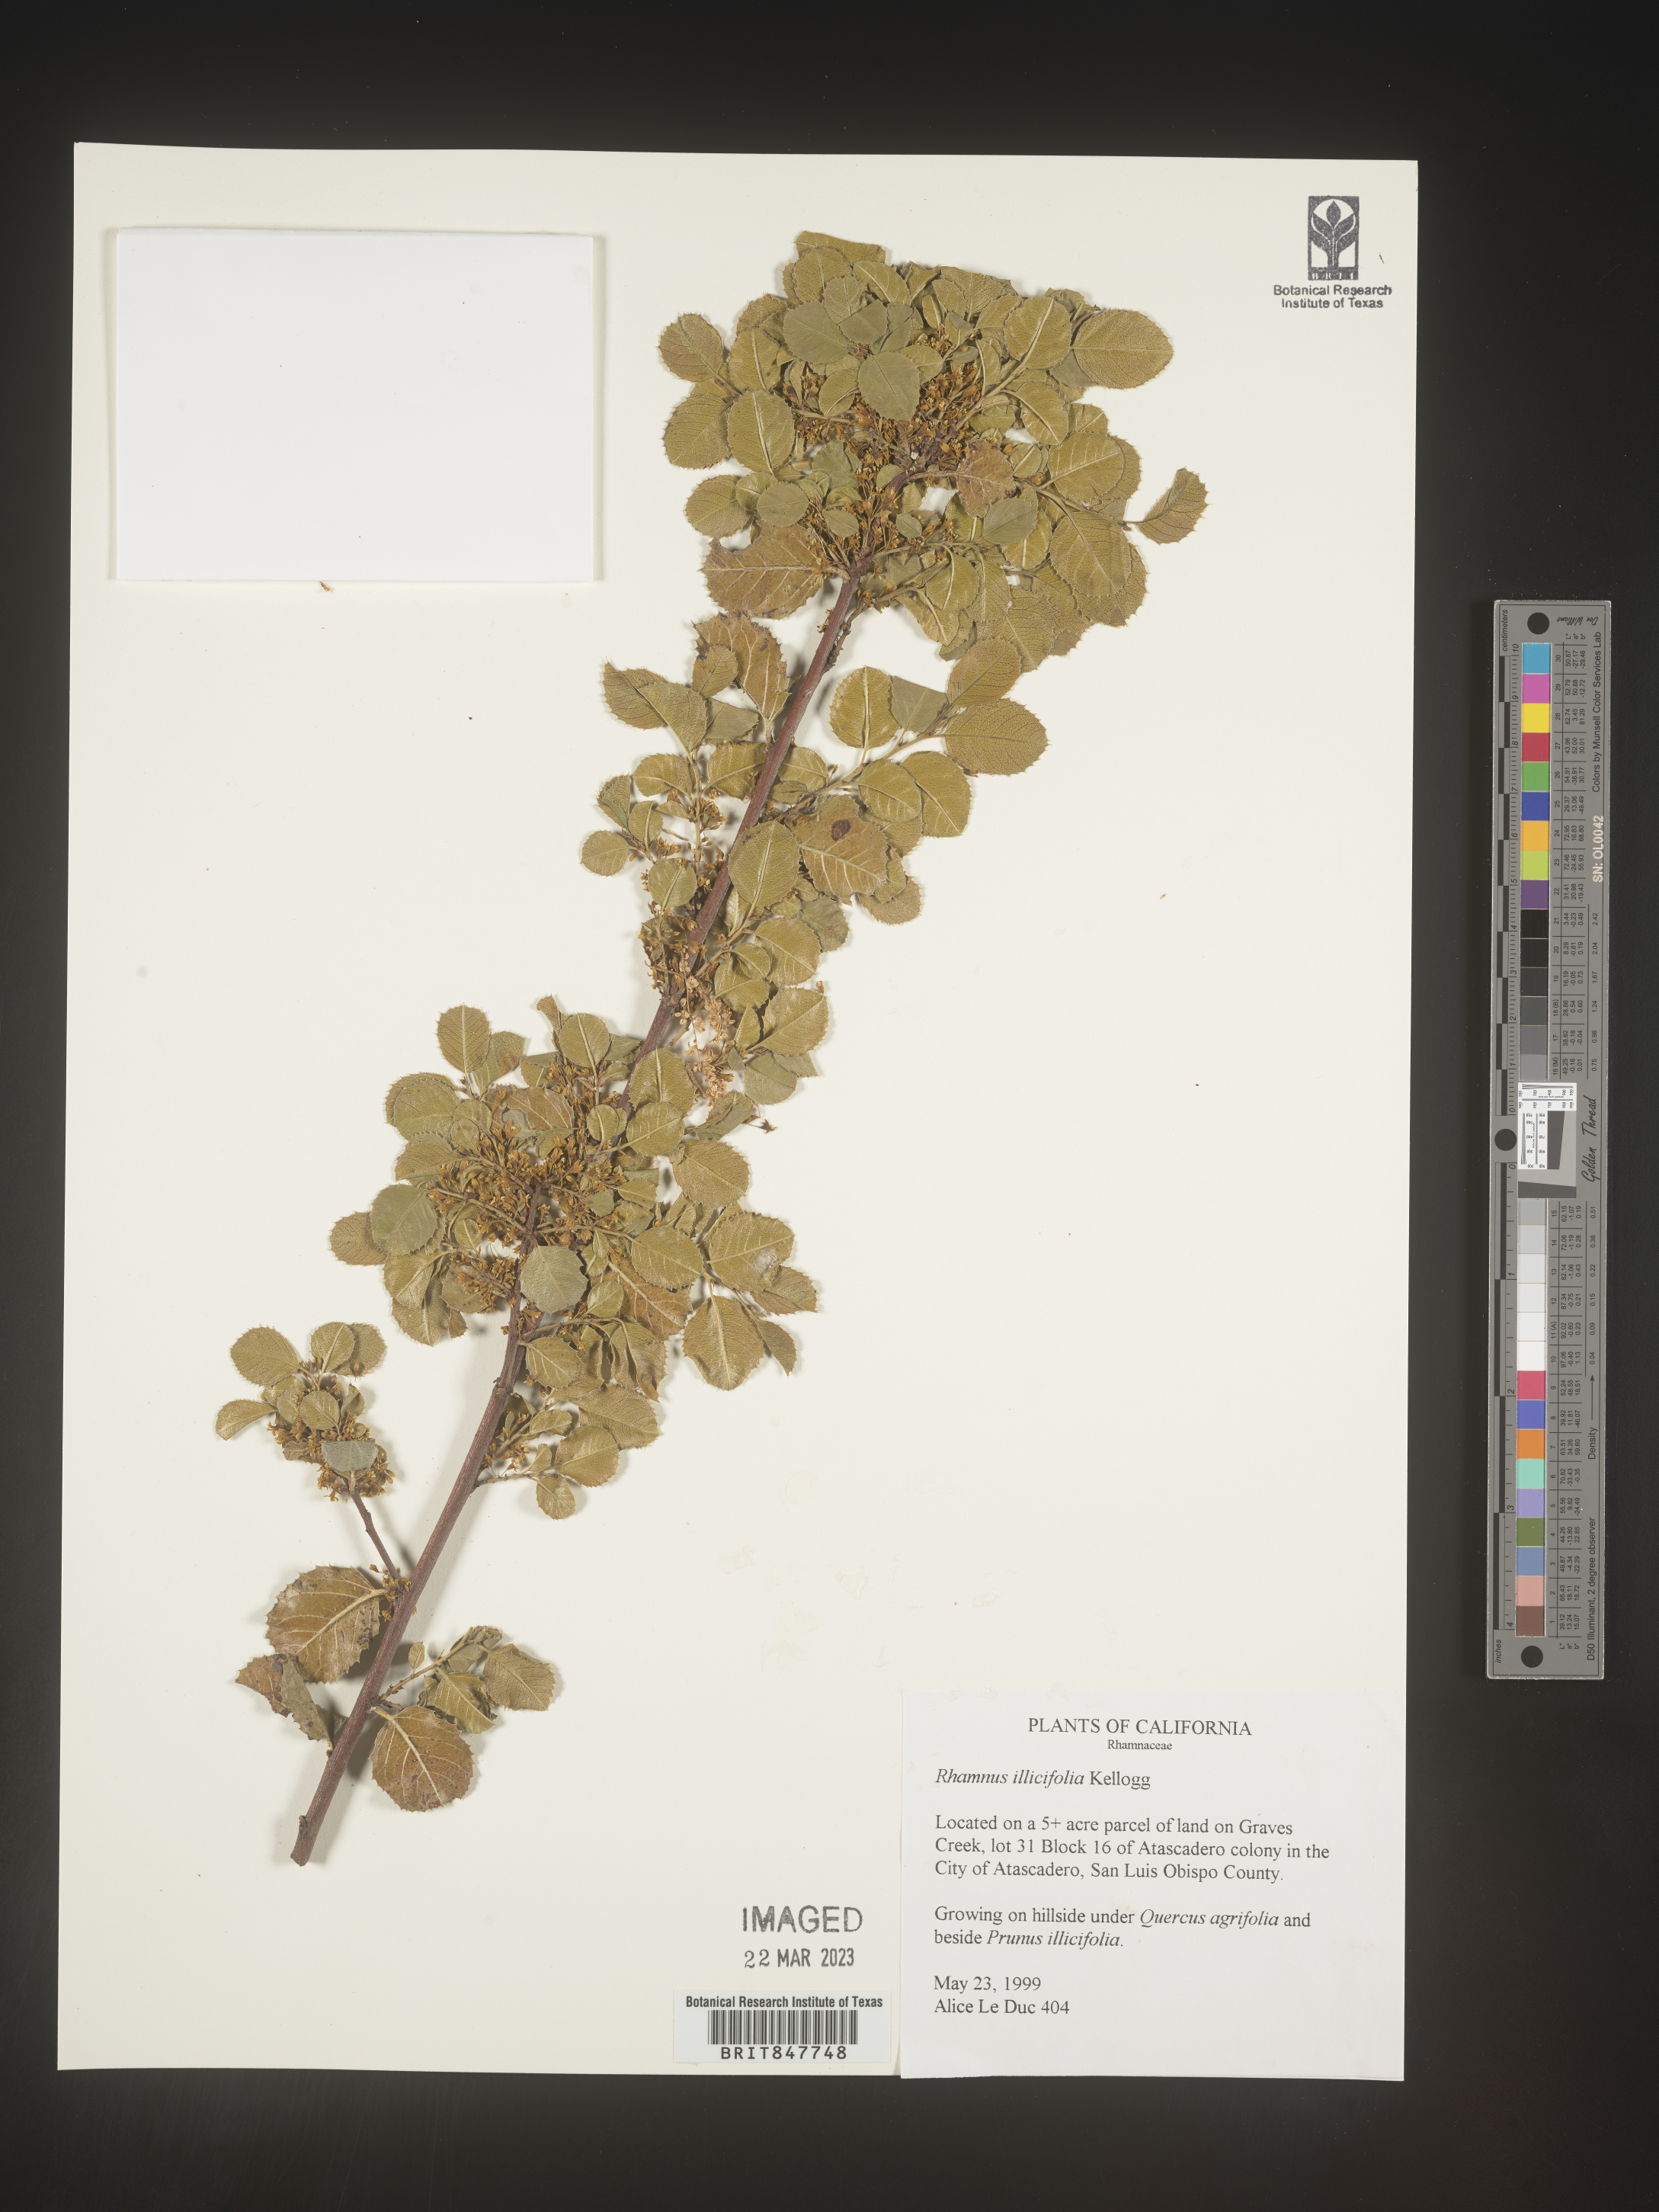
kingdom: Plantae
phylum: Tracheophyta
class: Magnoliopsida
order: Rosales
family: Rhamnaceae
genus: Endotropis
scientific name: Endotropis crocea
